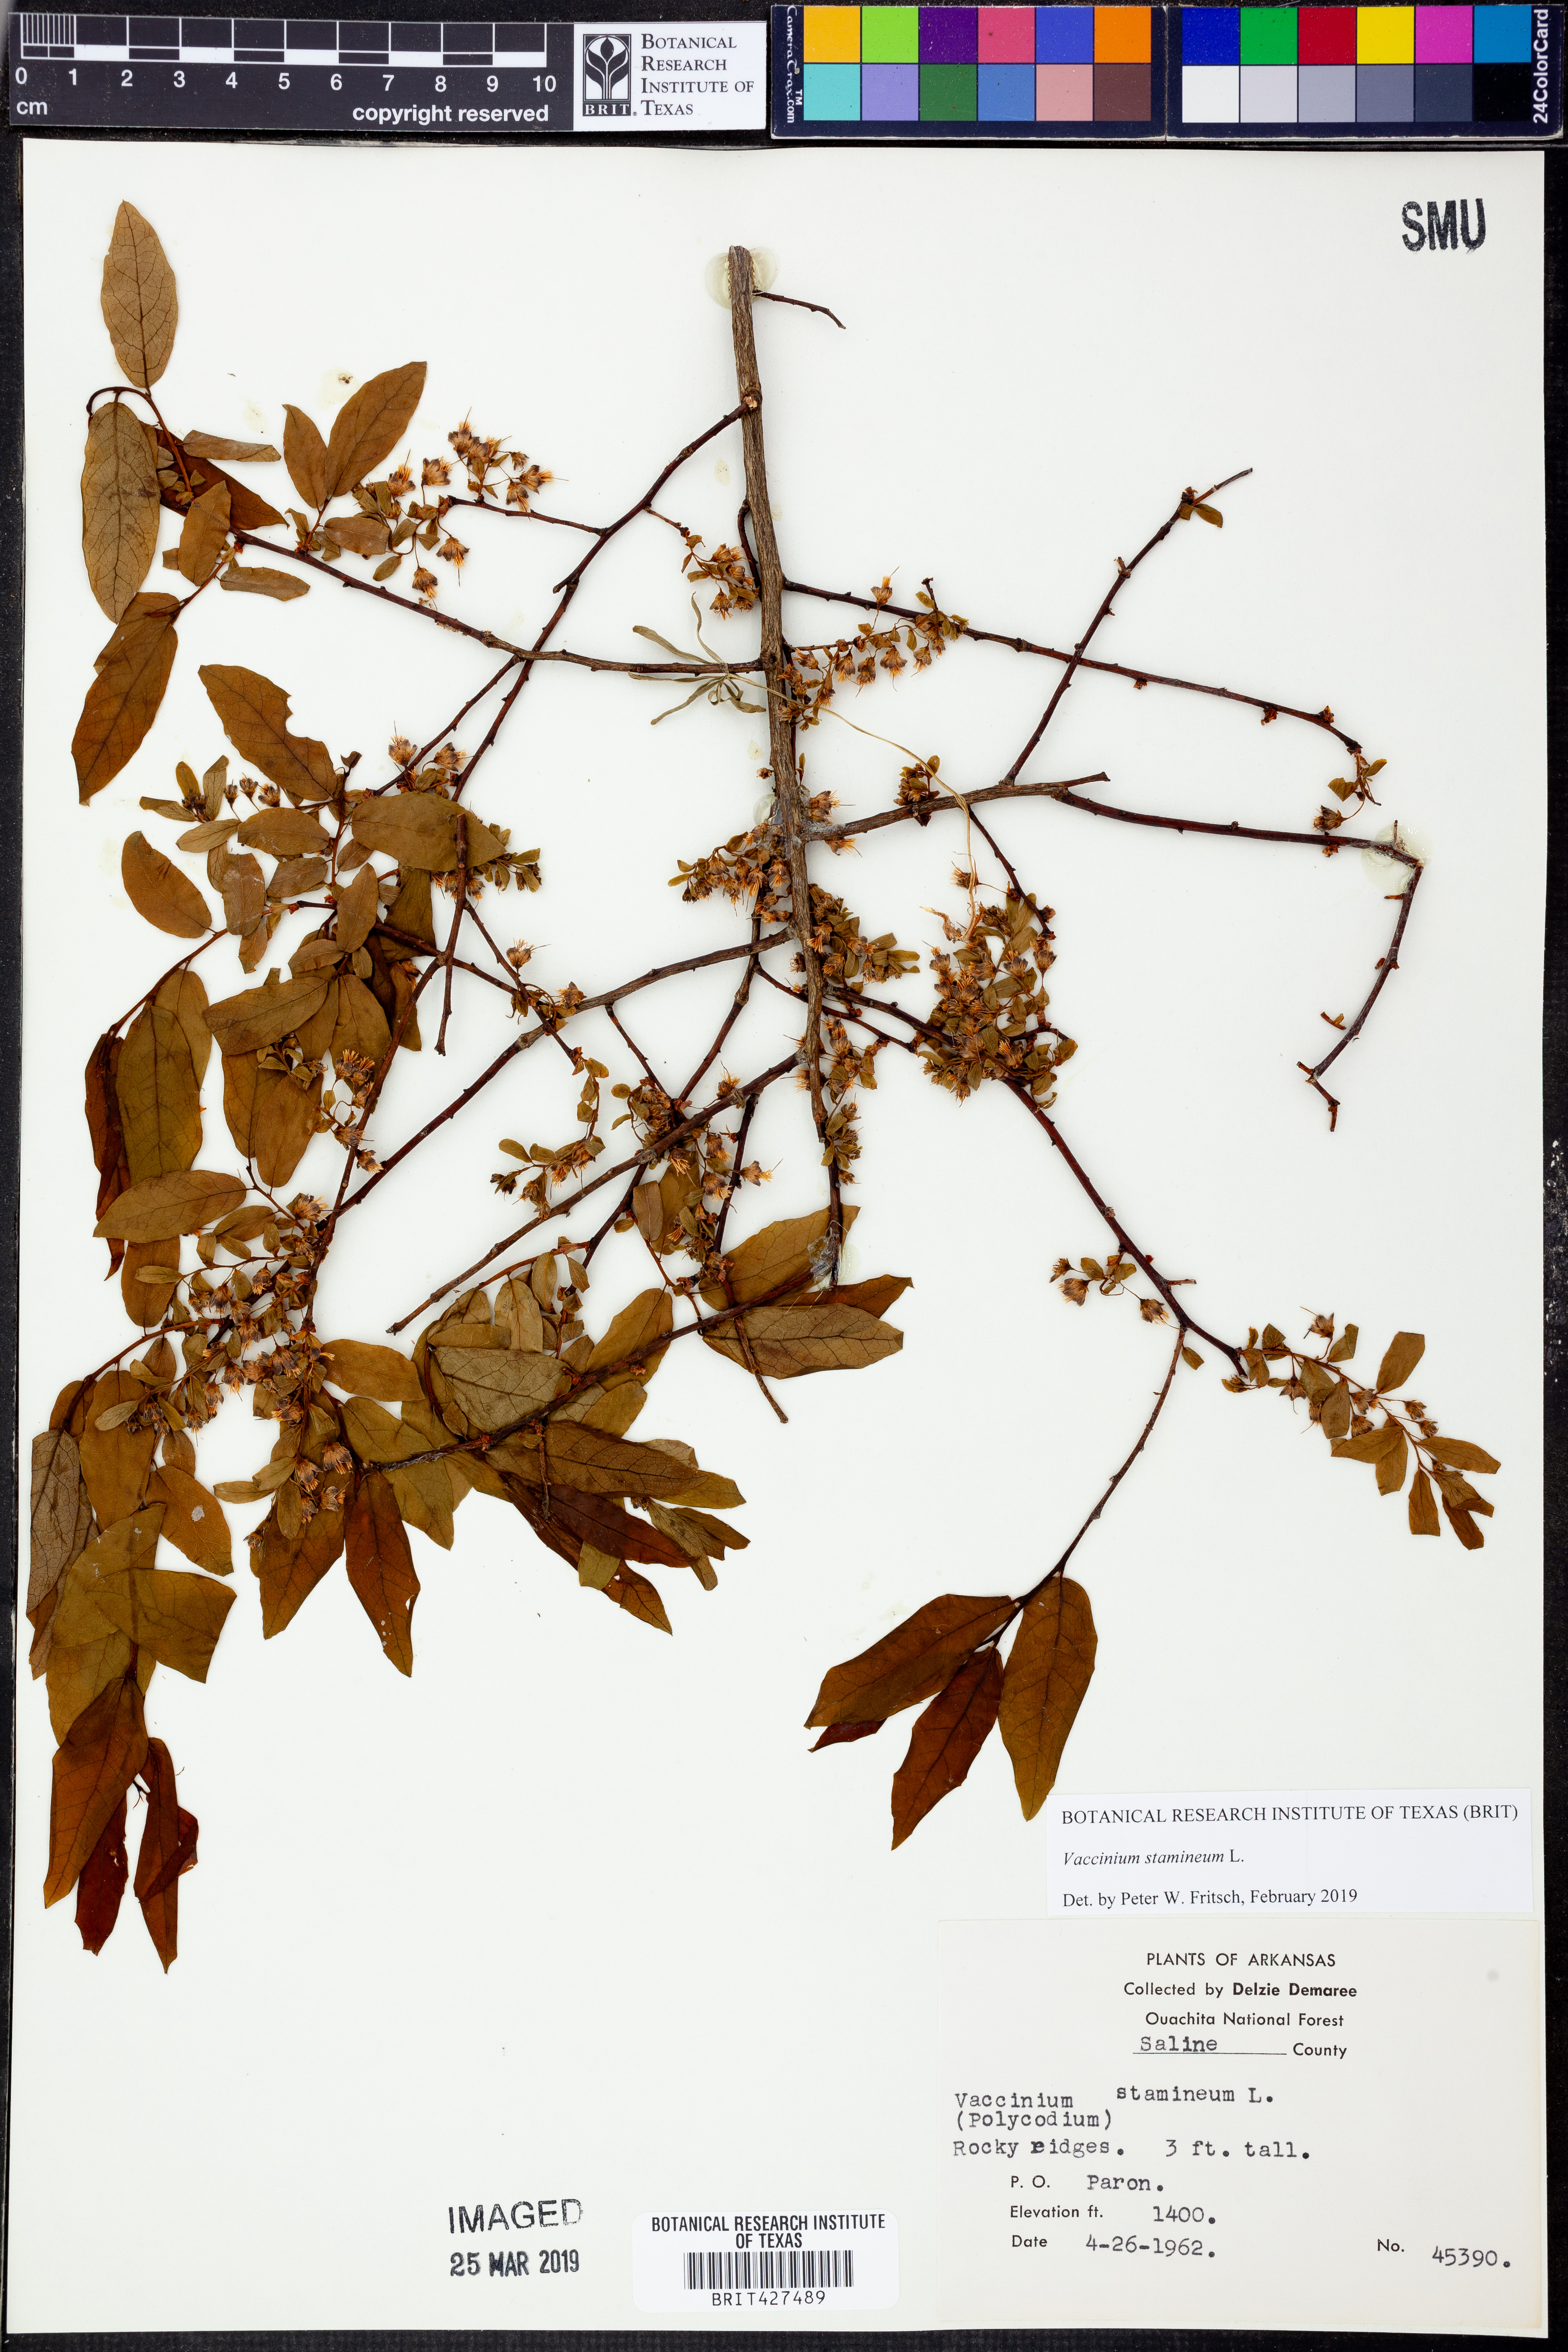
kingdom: Plantae
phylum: Tracheophyta
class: Magnoliopsida
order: Ericales
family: Ericaceae
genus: Vaccinium
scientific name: Vaccinium stamineum
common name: Deerberry
